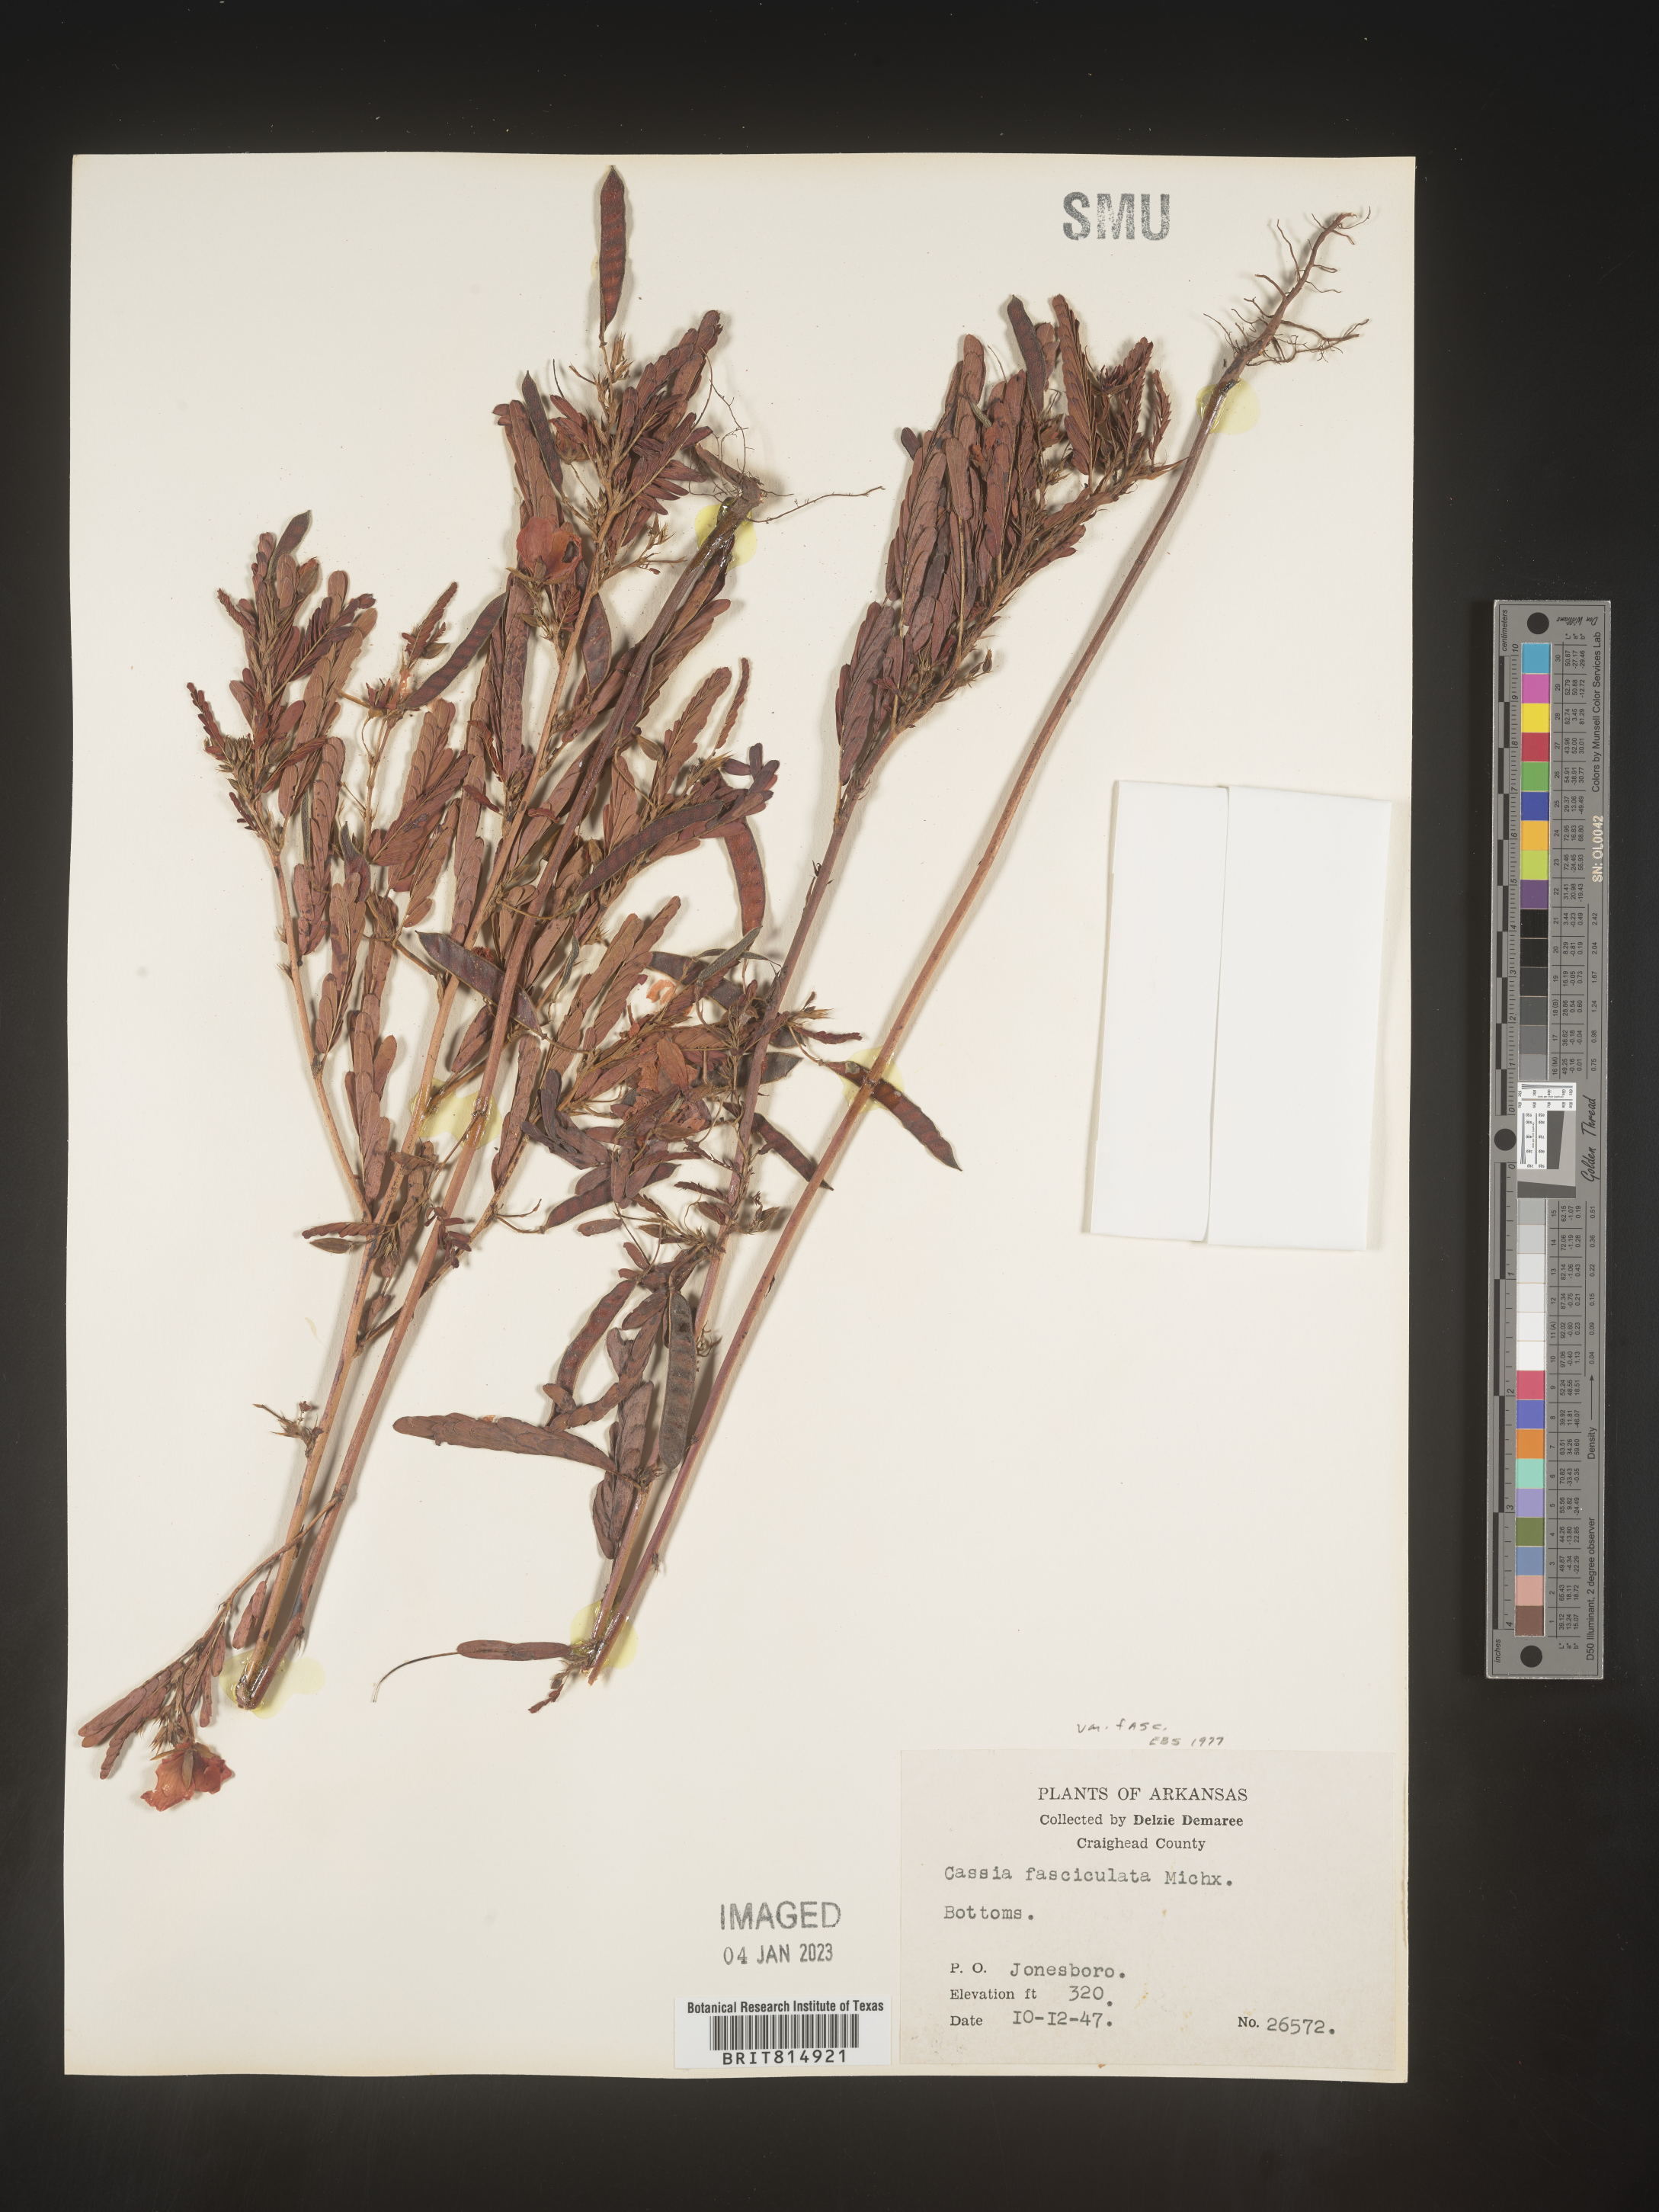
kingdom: Plantae
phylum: Tracheophyta
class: Magnoliopsida
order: Fabales
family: Fabaceae
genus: Chamaecrista
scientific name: Chamaecrista fasciculata
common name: Golden cassia
